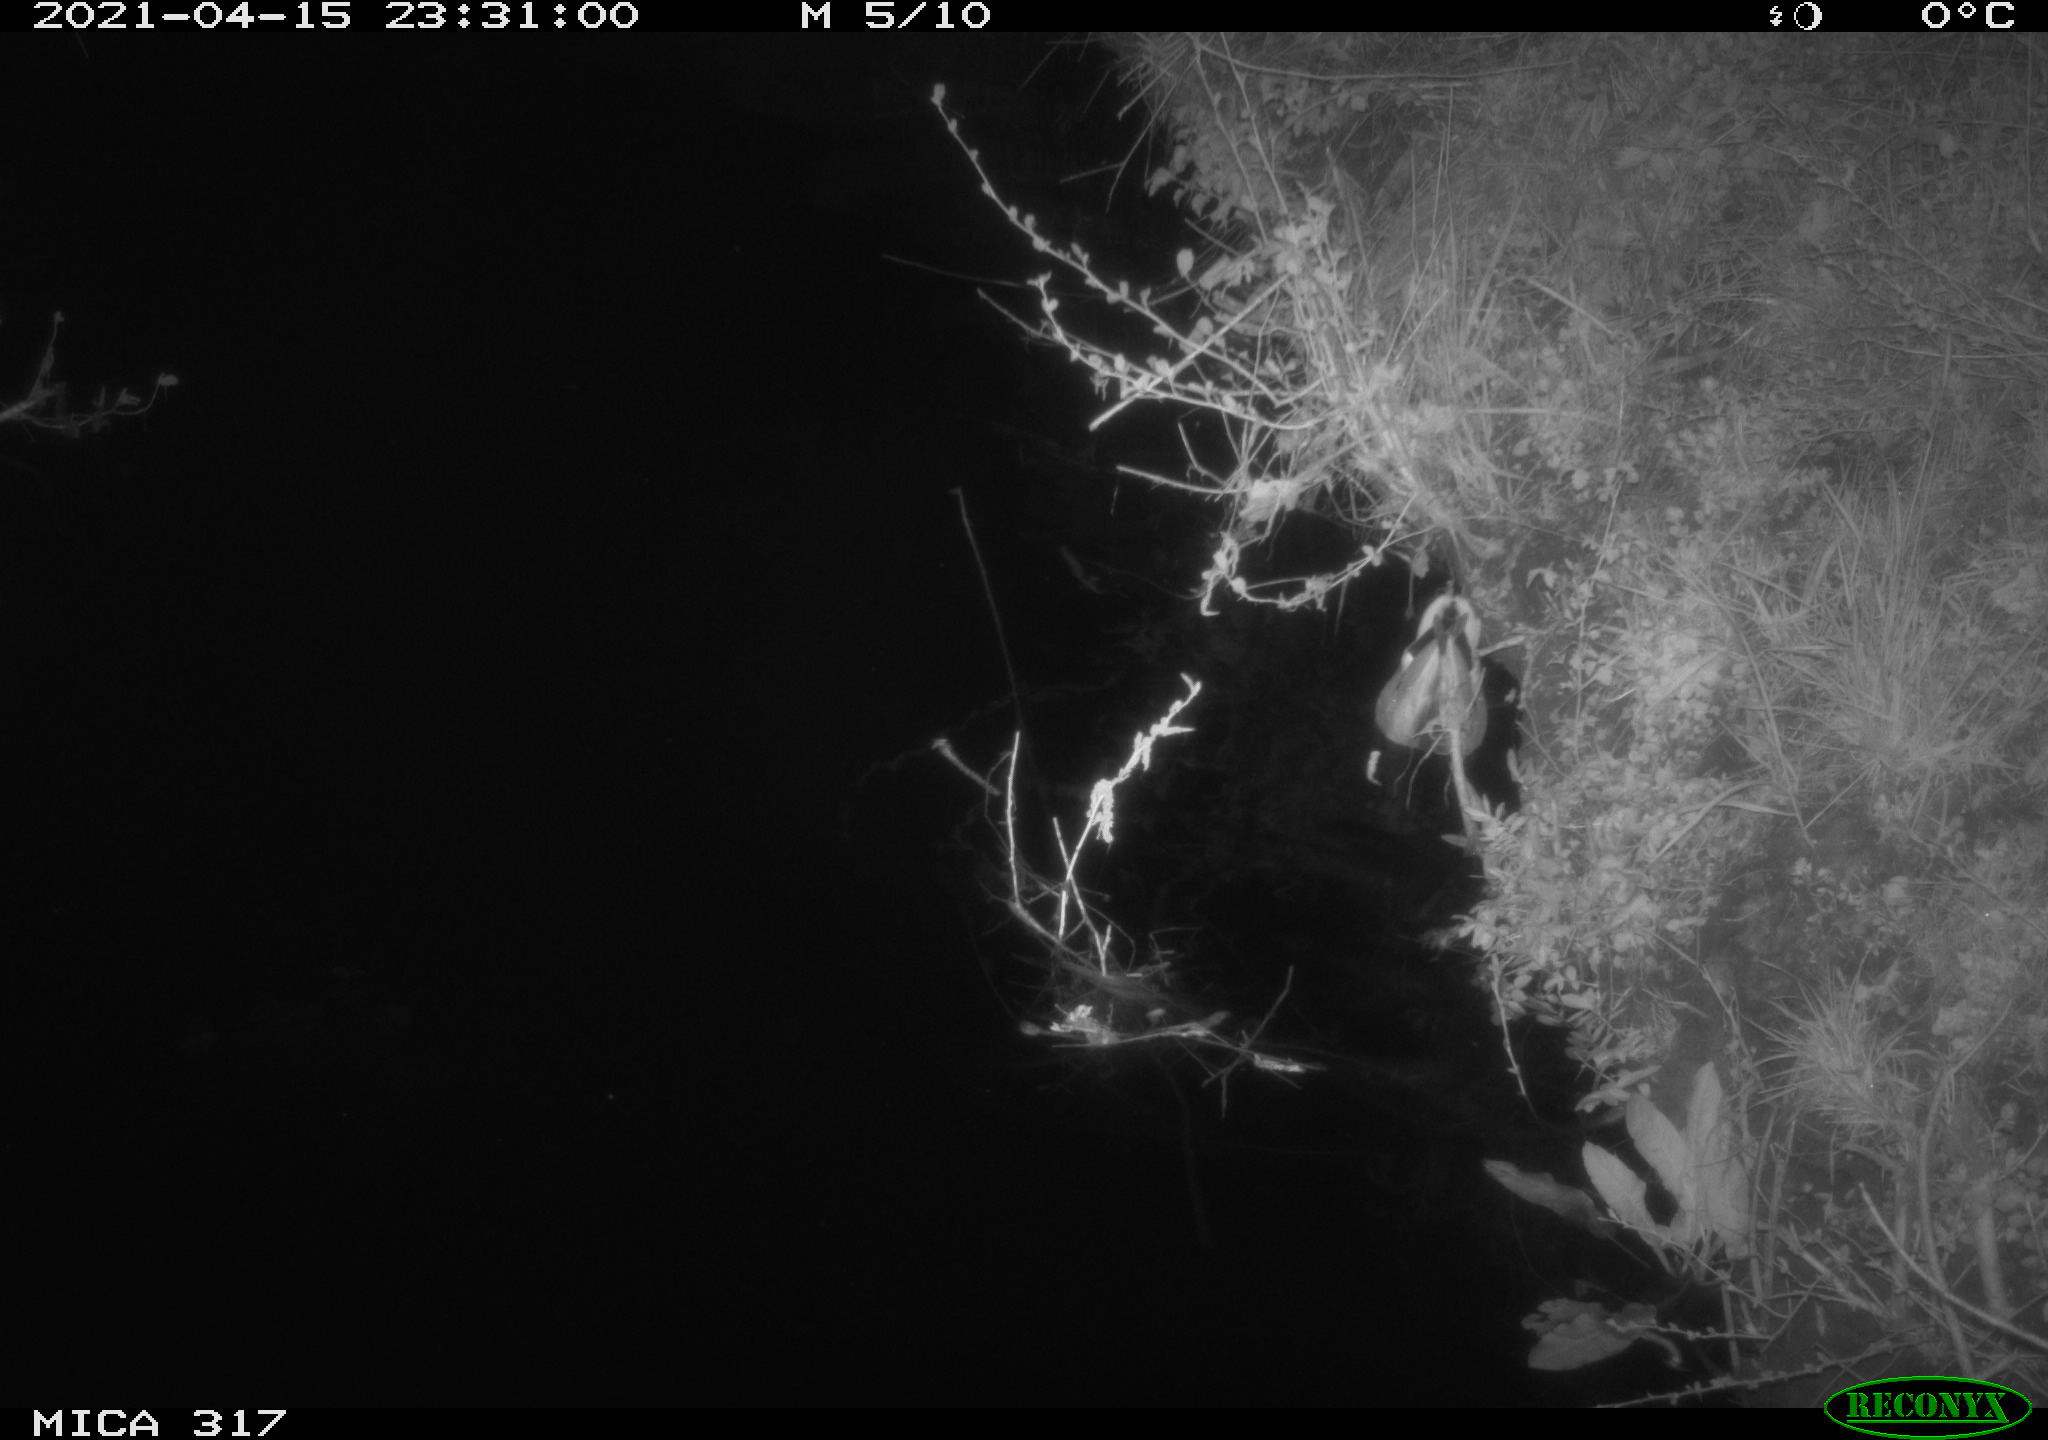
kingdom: Animalia
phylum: Chordata
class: Aves
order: Anseriformes
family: Anatidae
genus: Anas
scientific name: Anas platyrhynchos
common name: Mallard
